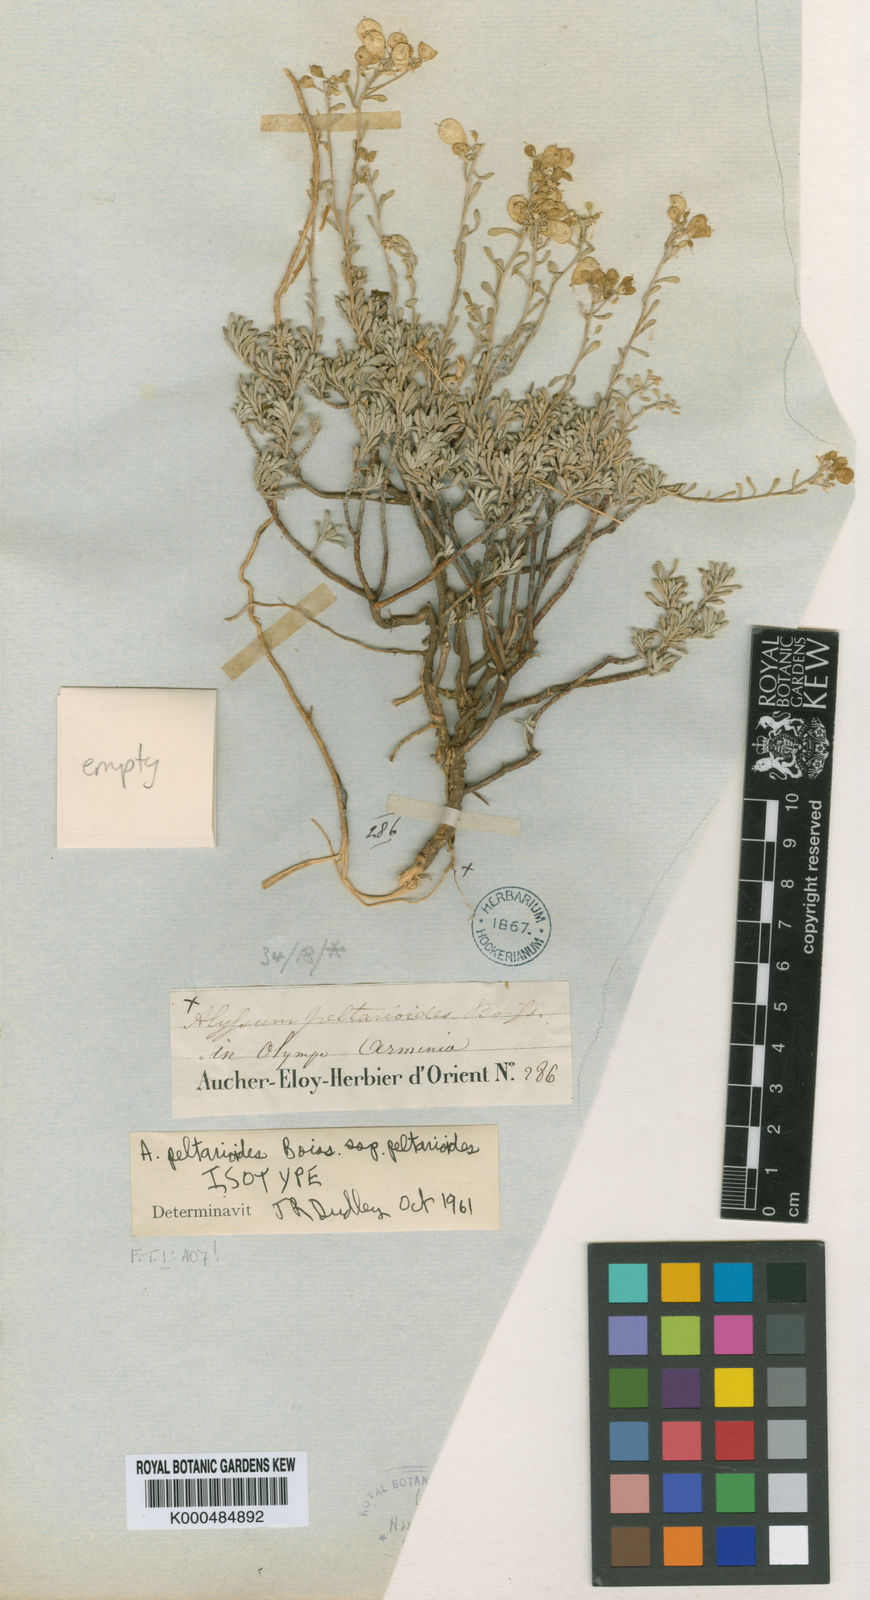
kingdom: Plantae
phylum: Tracheophyta
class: Magnoliopsida
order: Brassicales
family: Brassicaceae
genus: Odontarrhena
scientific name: Odontarrhena
